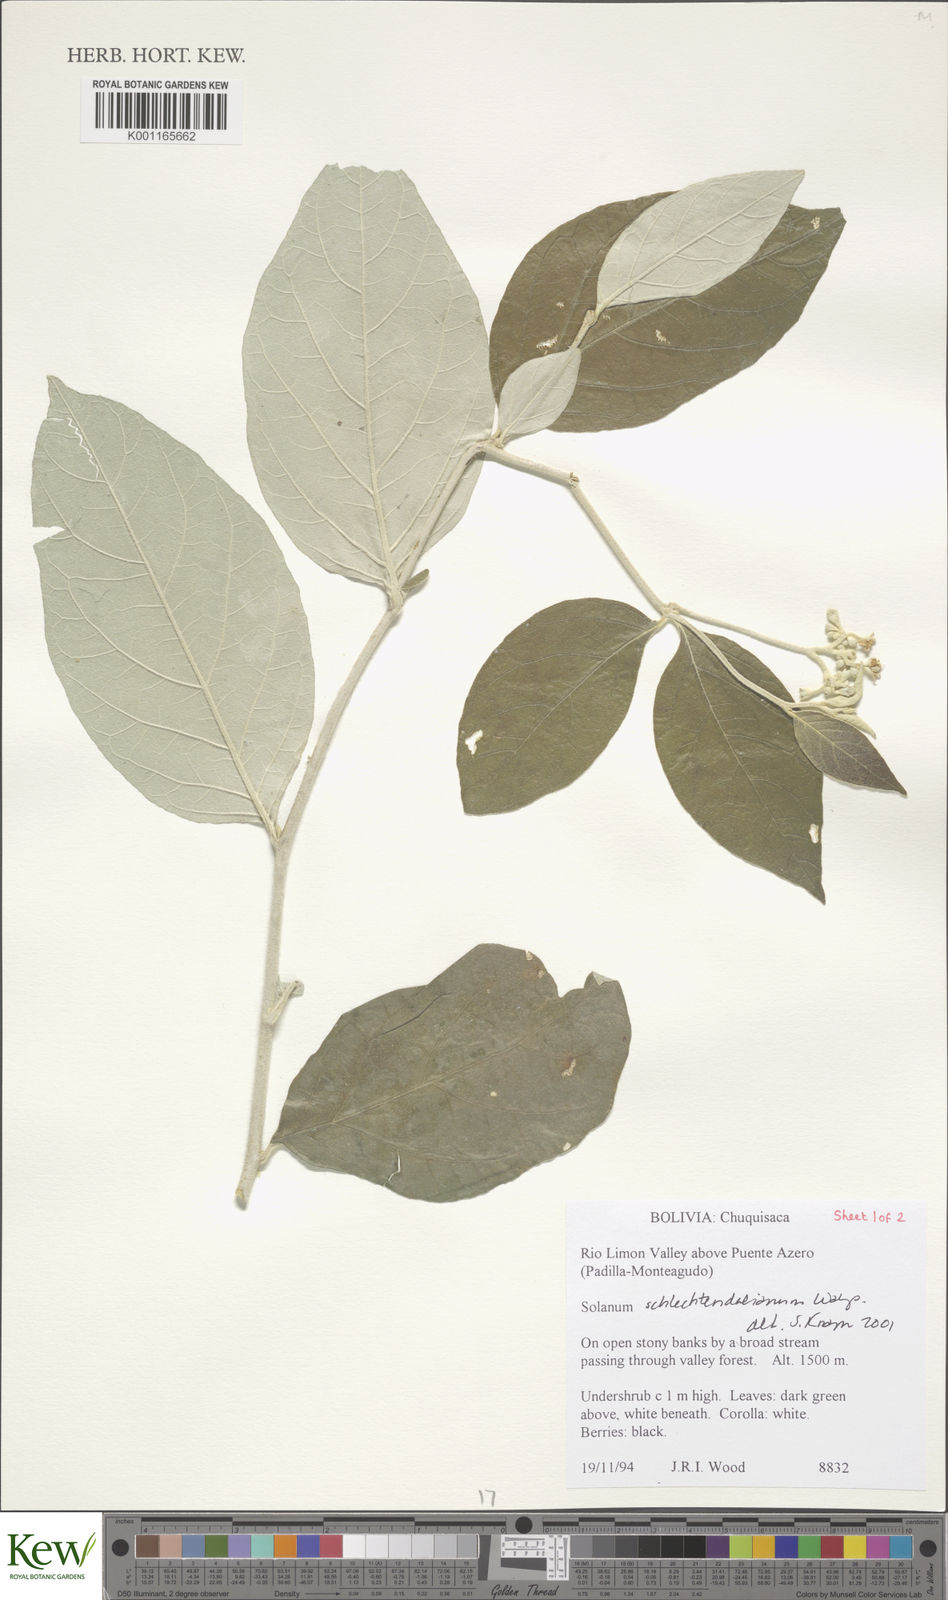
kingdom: Plantae
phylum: Tracheophyta
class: Magnoliopsida
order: Solanales
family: Solanaceae
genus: Solanum
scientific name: Solanum schlechtendalianum
